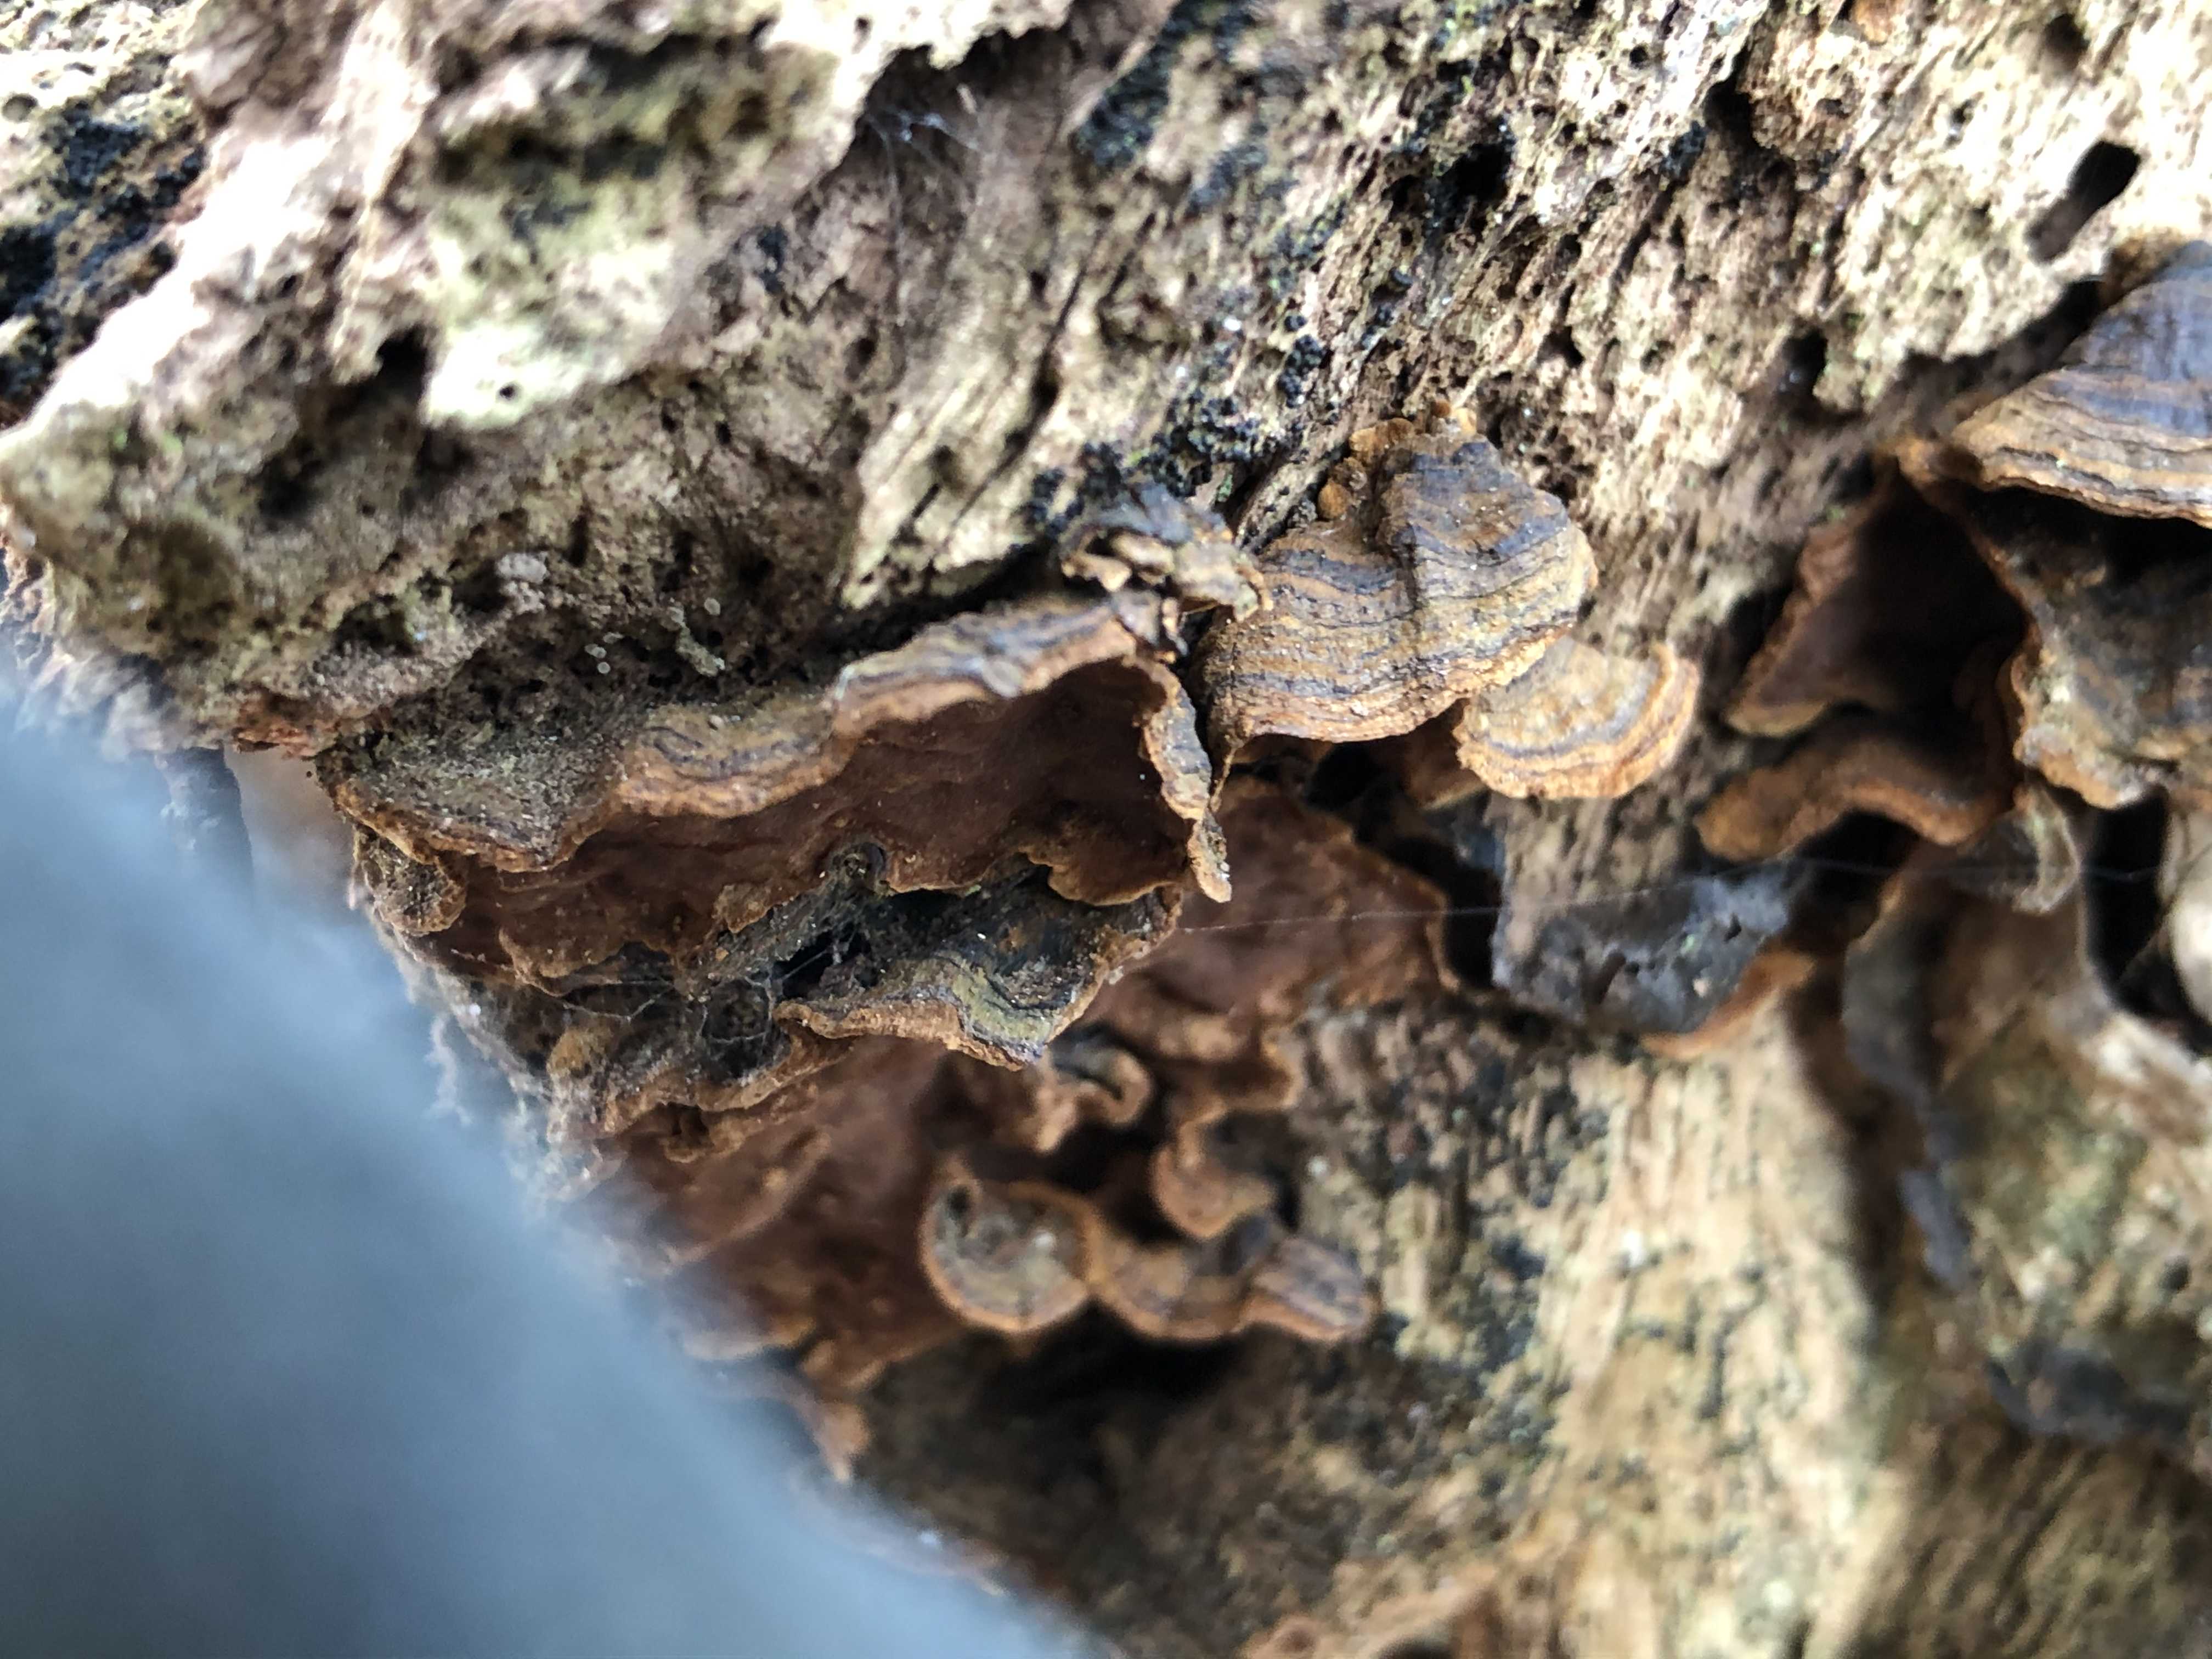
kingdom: Fungi
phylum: Basidiomycota
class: Agaricomycetes
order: Hymenochaetales
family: Hymenochaetaceae
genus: Hymenochaete
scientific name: Hymenochaete rubiginosa
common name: stiv ruslædersvamp
